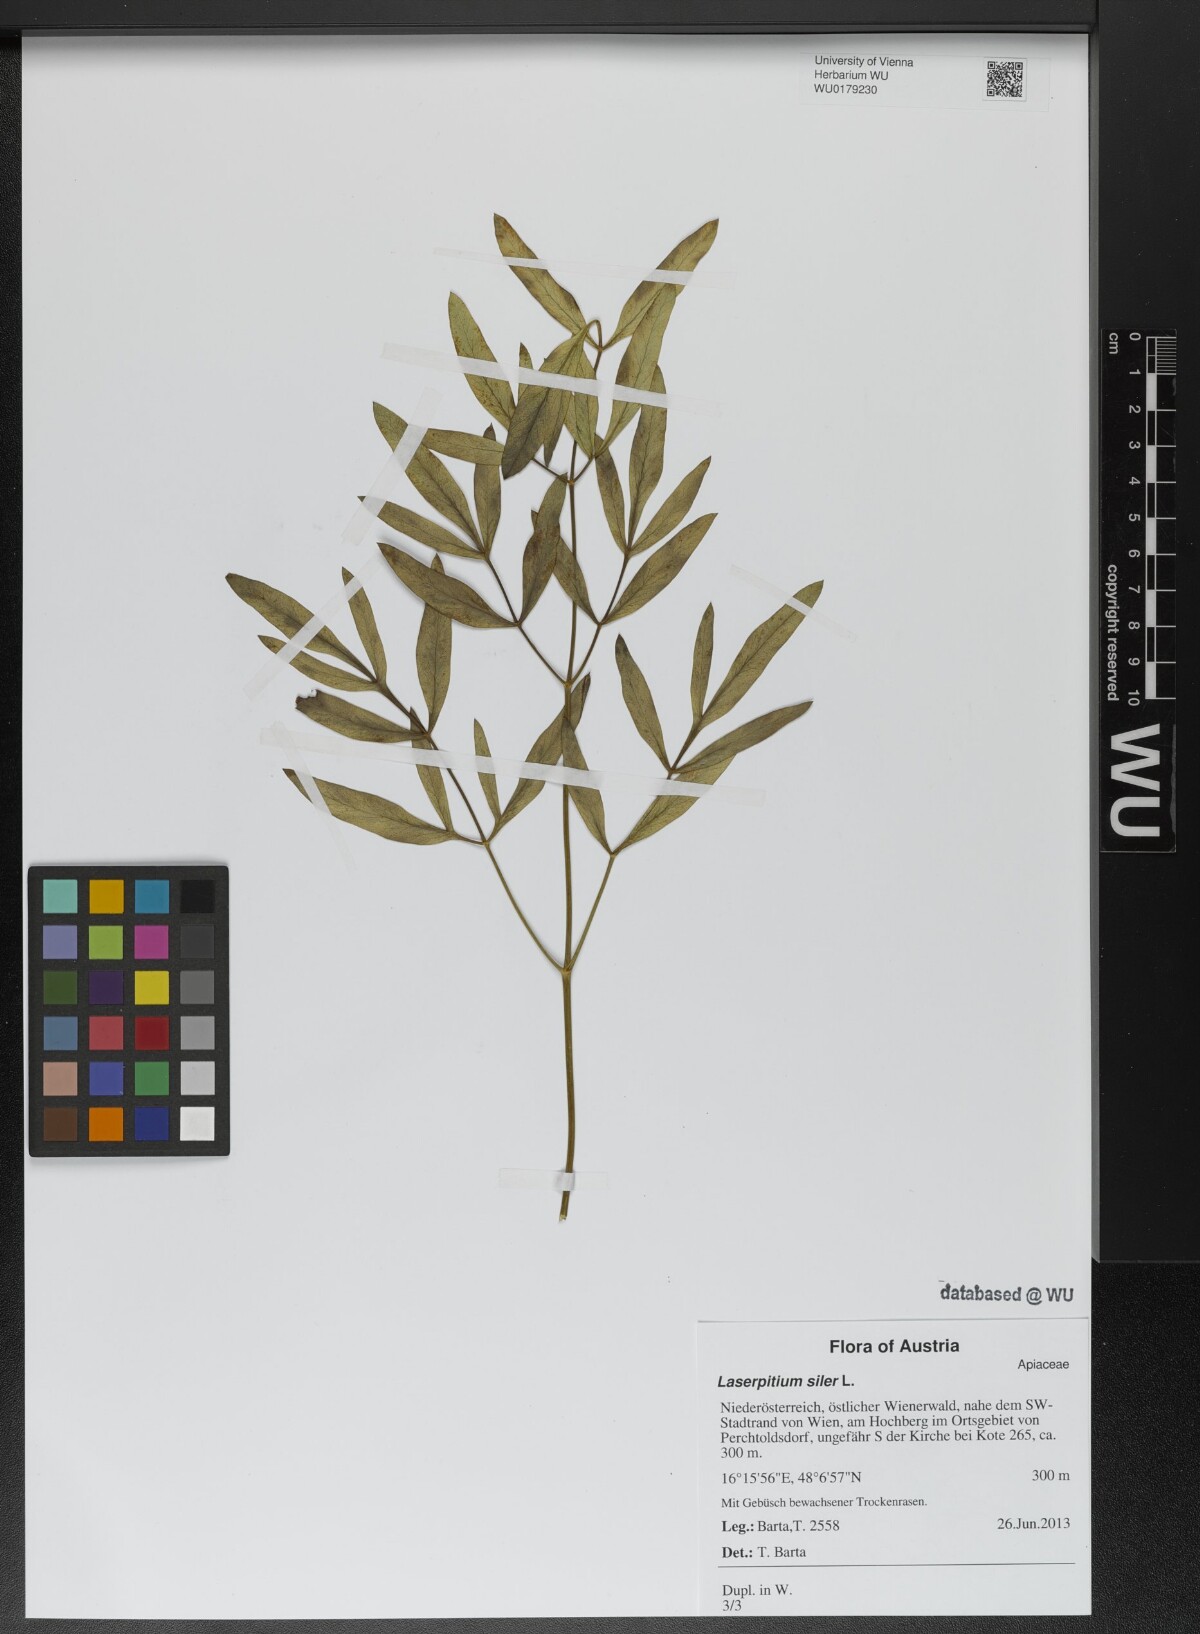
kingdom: Plantae
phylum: Tracheophyta
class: Magnoliopsida
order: Apiales
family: Apiaceae
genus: Siler
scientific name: Siler montanum
